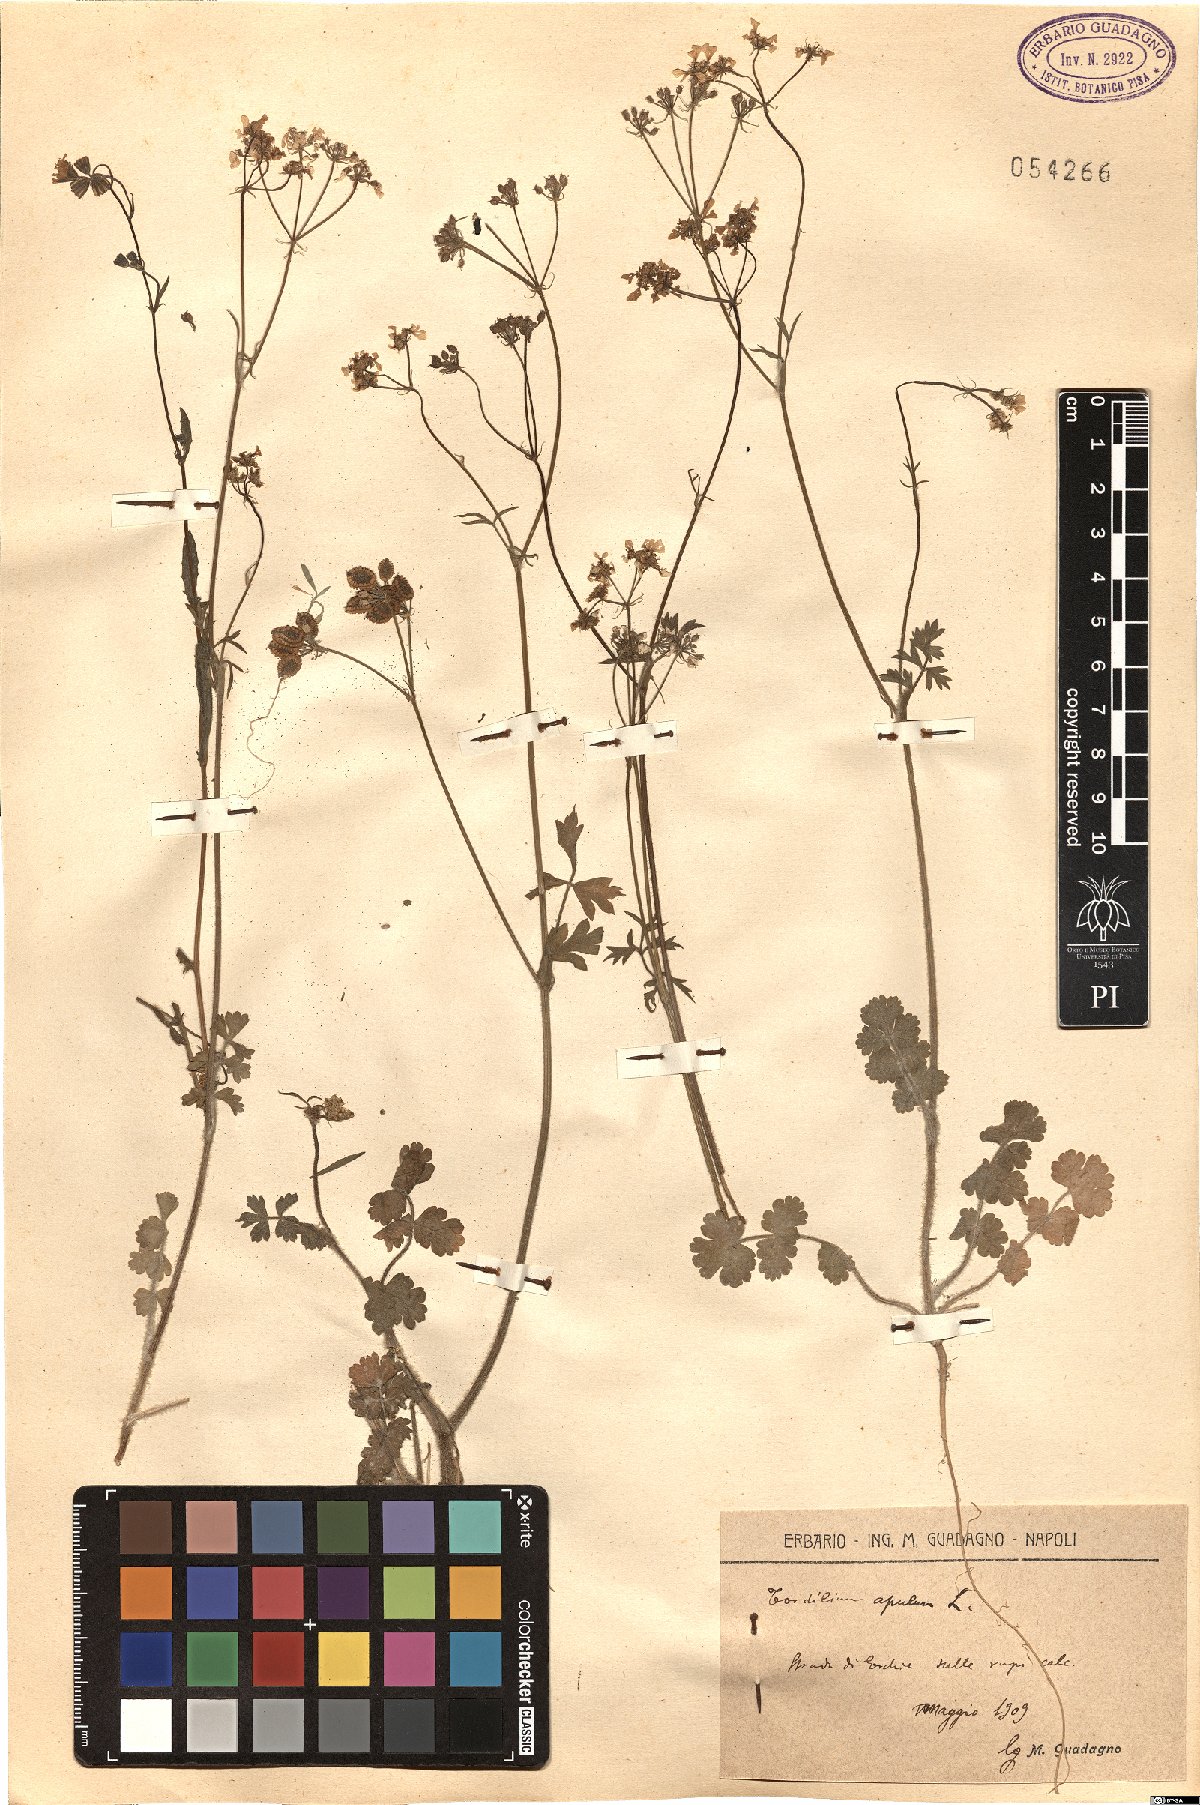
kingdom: Plantae
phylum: Tracheophyta
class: Magnoliopsida
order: Apiales
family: Apiaceae
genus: Tordylium
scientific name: Tordylium apulum
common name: Mediterranean hartwort
